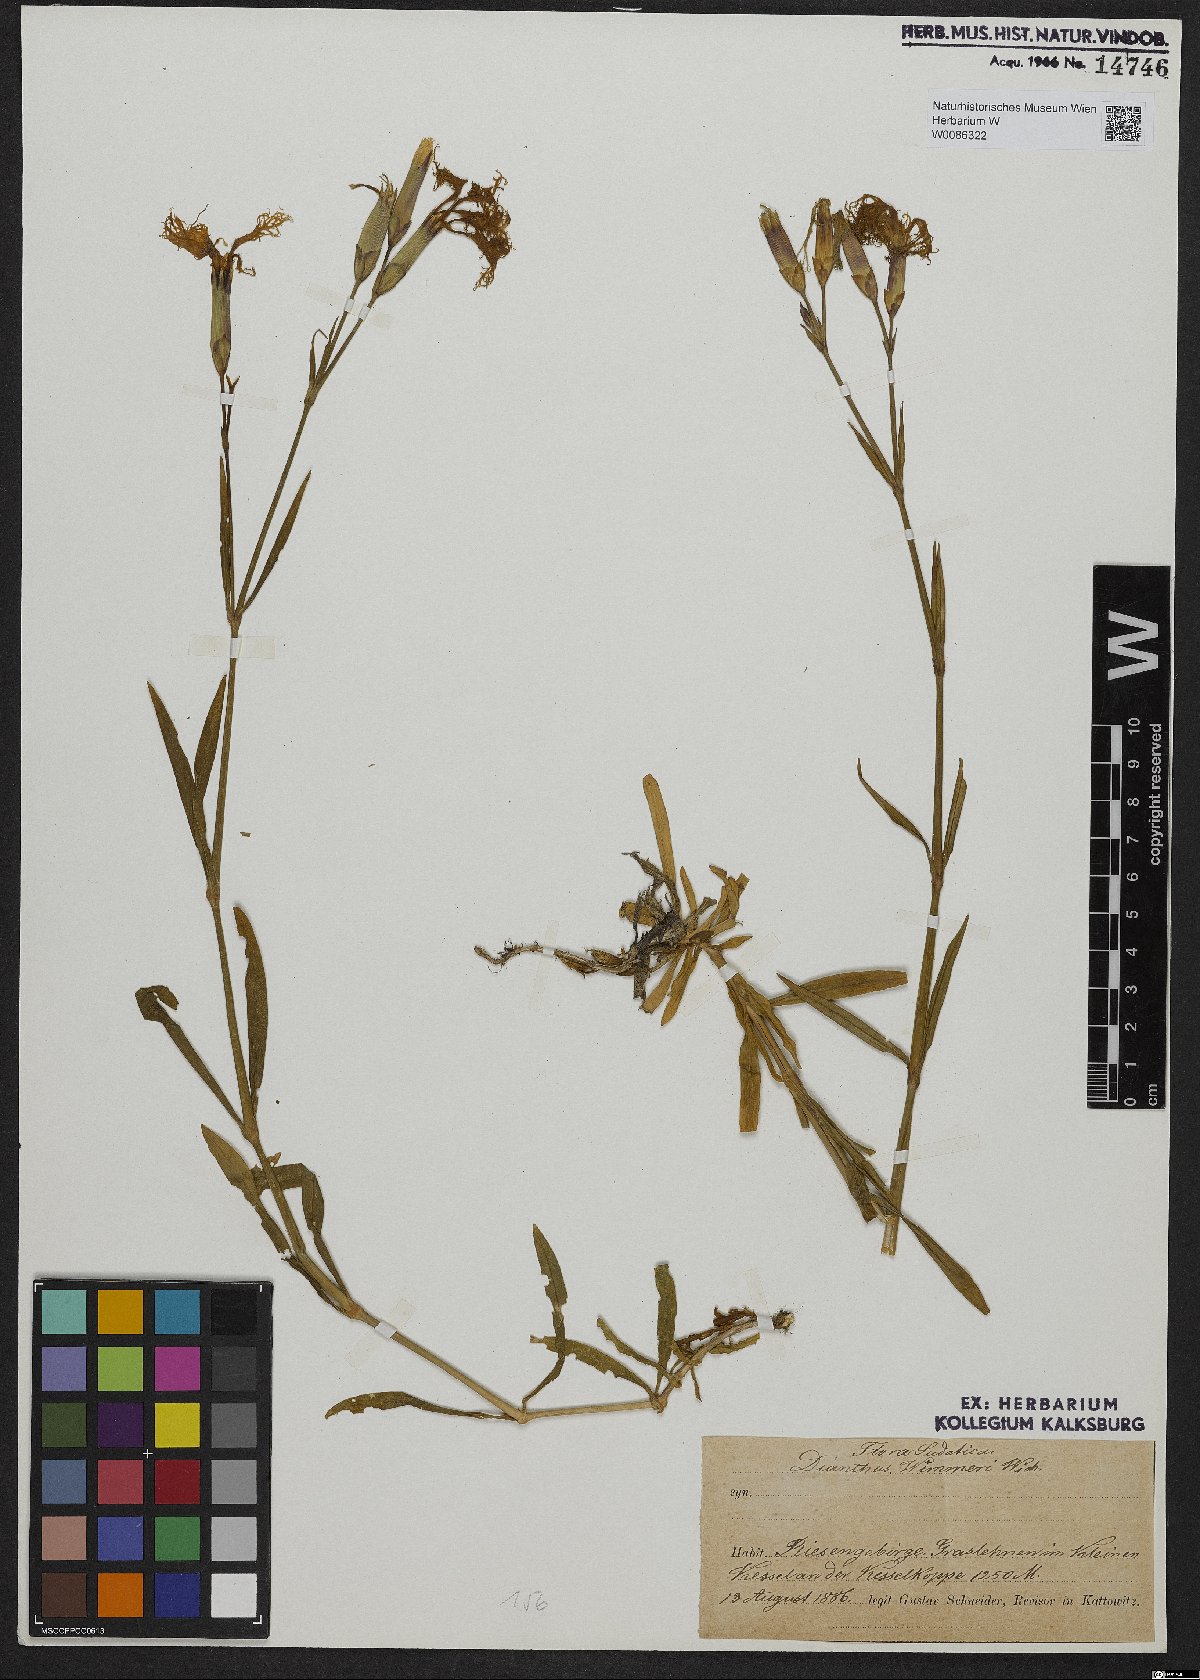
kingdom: Plantae
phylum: Tracheophyta
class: Magnoliopsida
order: Caryophyllales
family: Caryophyllaceae
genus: Dianthus
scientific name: Dianthus superbus
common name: Fringed pink
